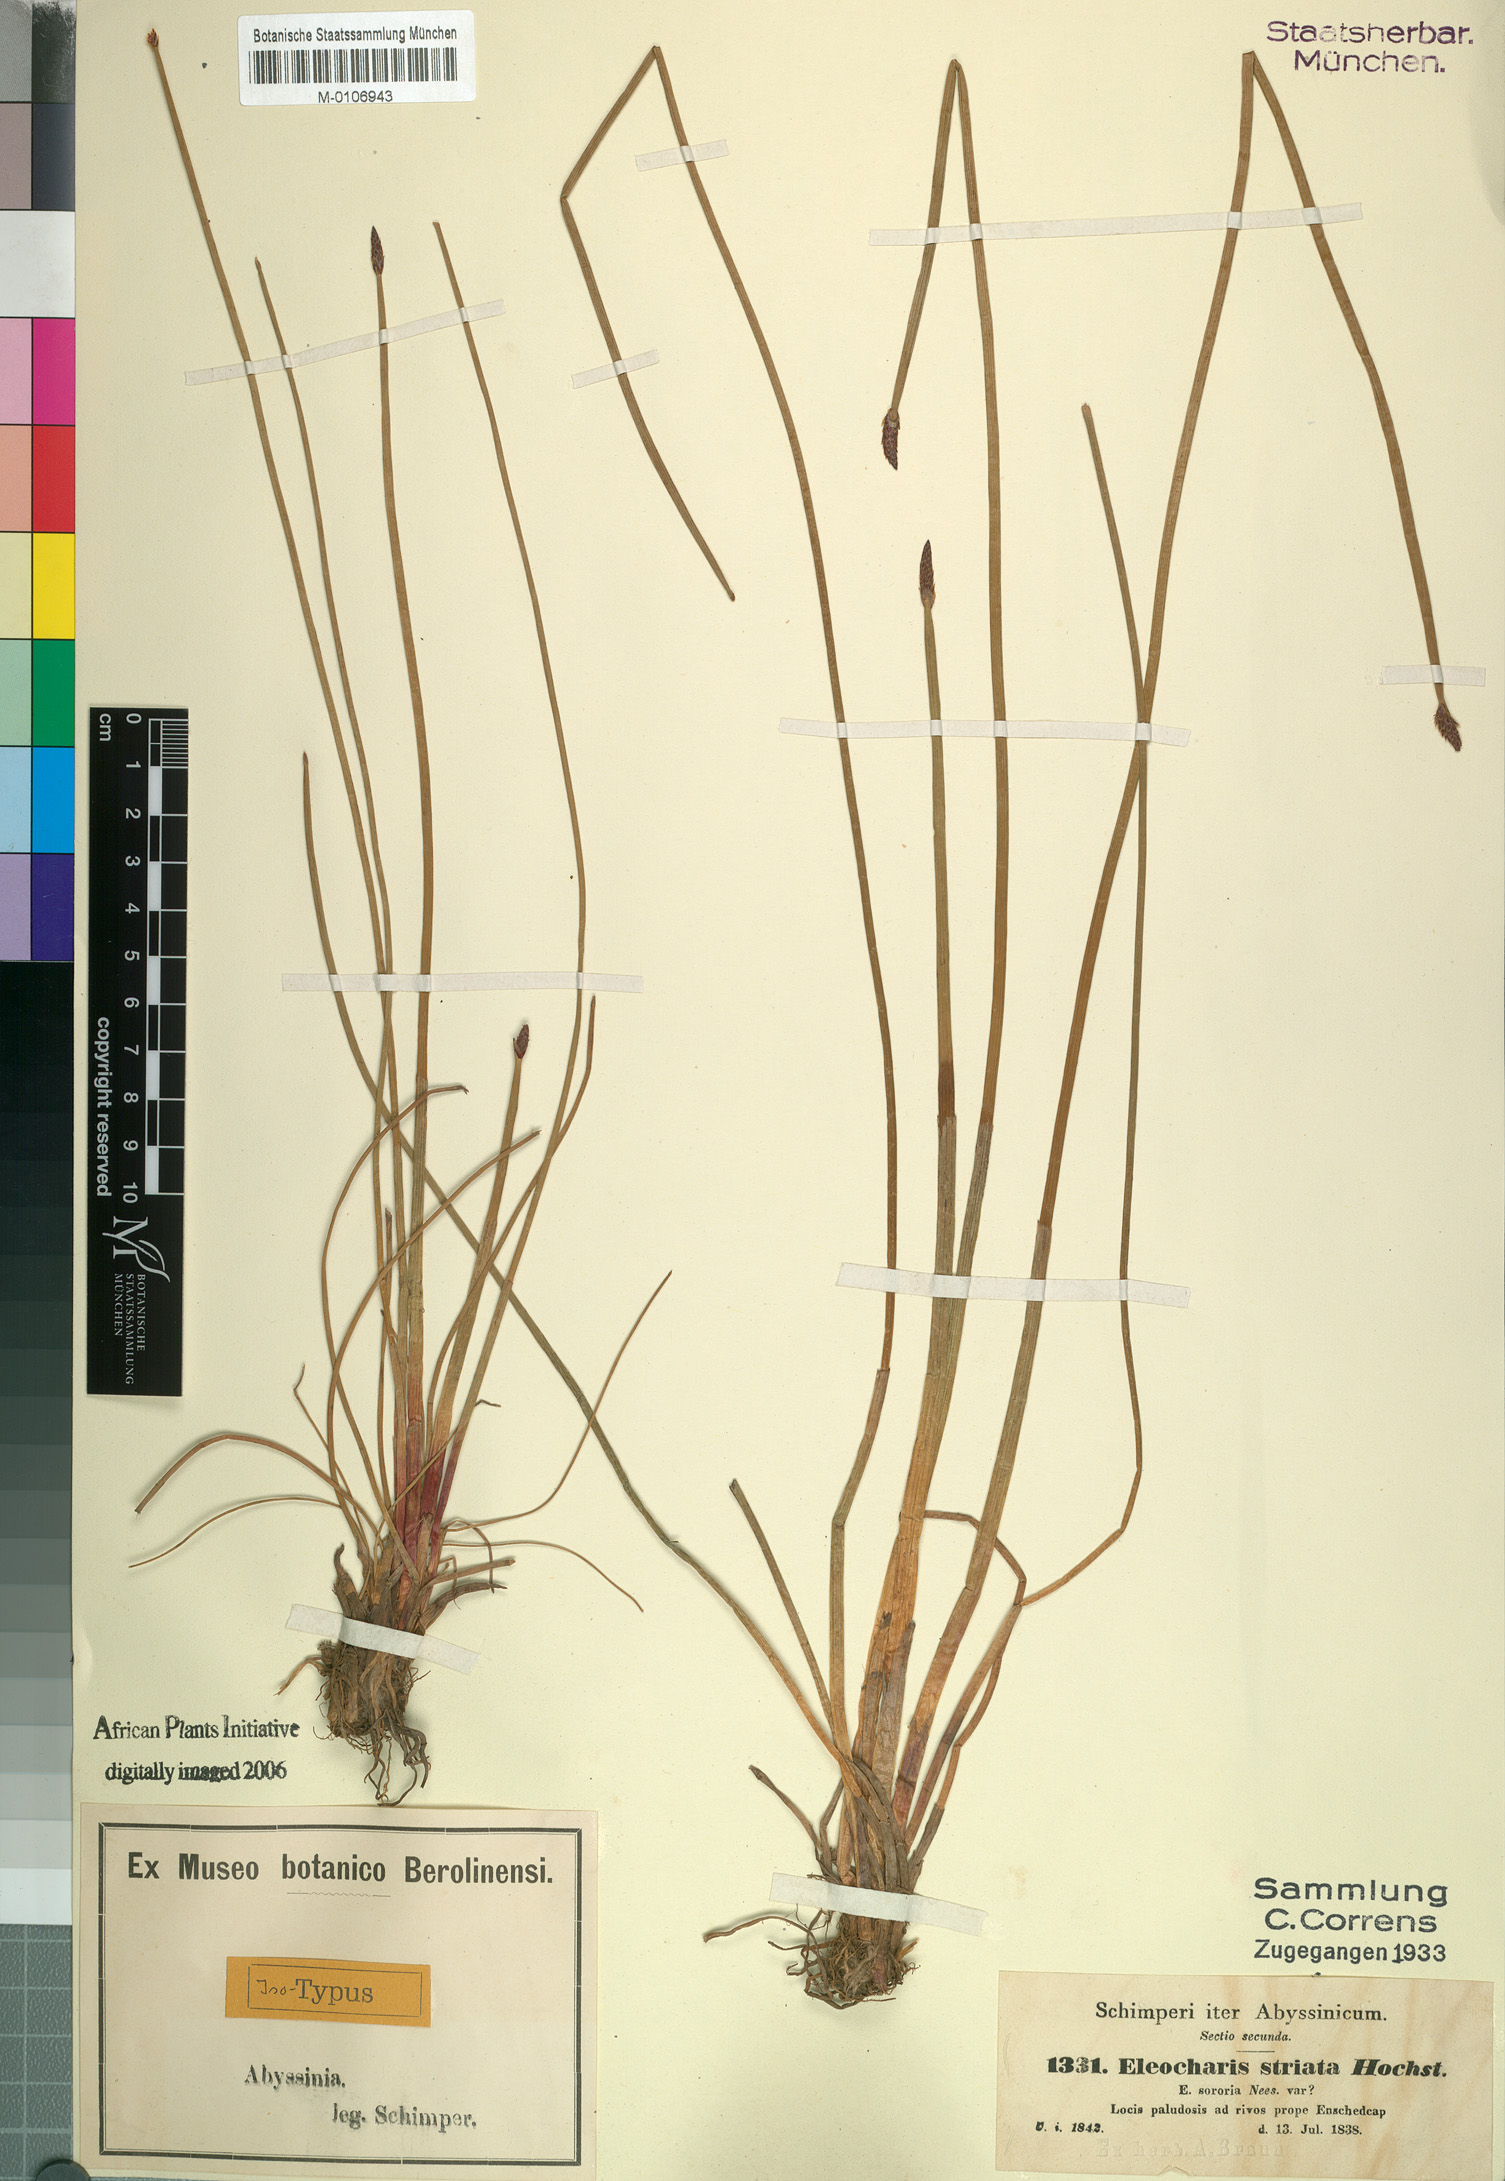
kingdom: Plantae
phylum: Tracheophyta
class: Liliopsida
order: Poales
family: Cyperaceae
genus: Eleocharis
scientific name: Eleocharis marginulata
